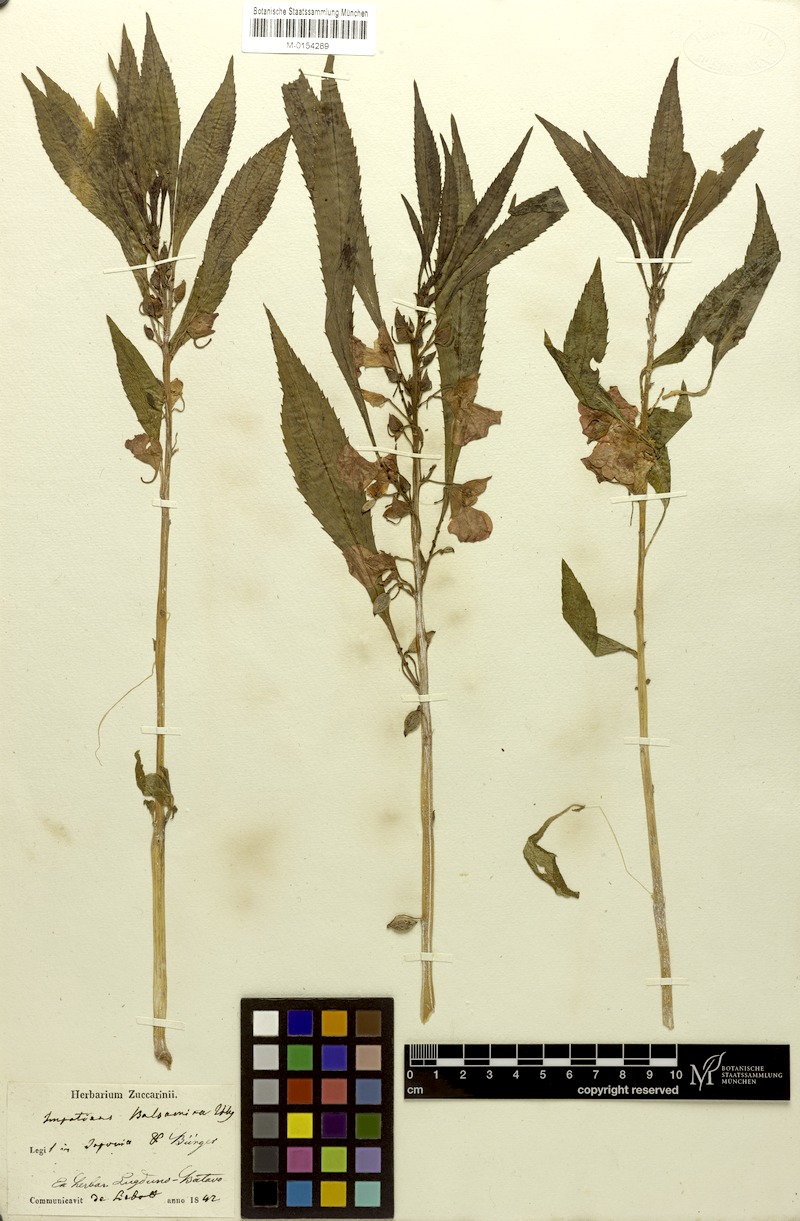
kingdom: Plantae
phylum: Tracheophyta
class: Magnoliopsida
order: Ericales
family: Balsaminaceae
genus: Impatiens
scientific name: Impatiens balsamina
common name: Balsam
